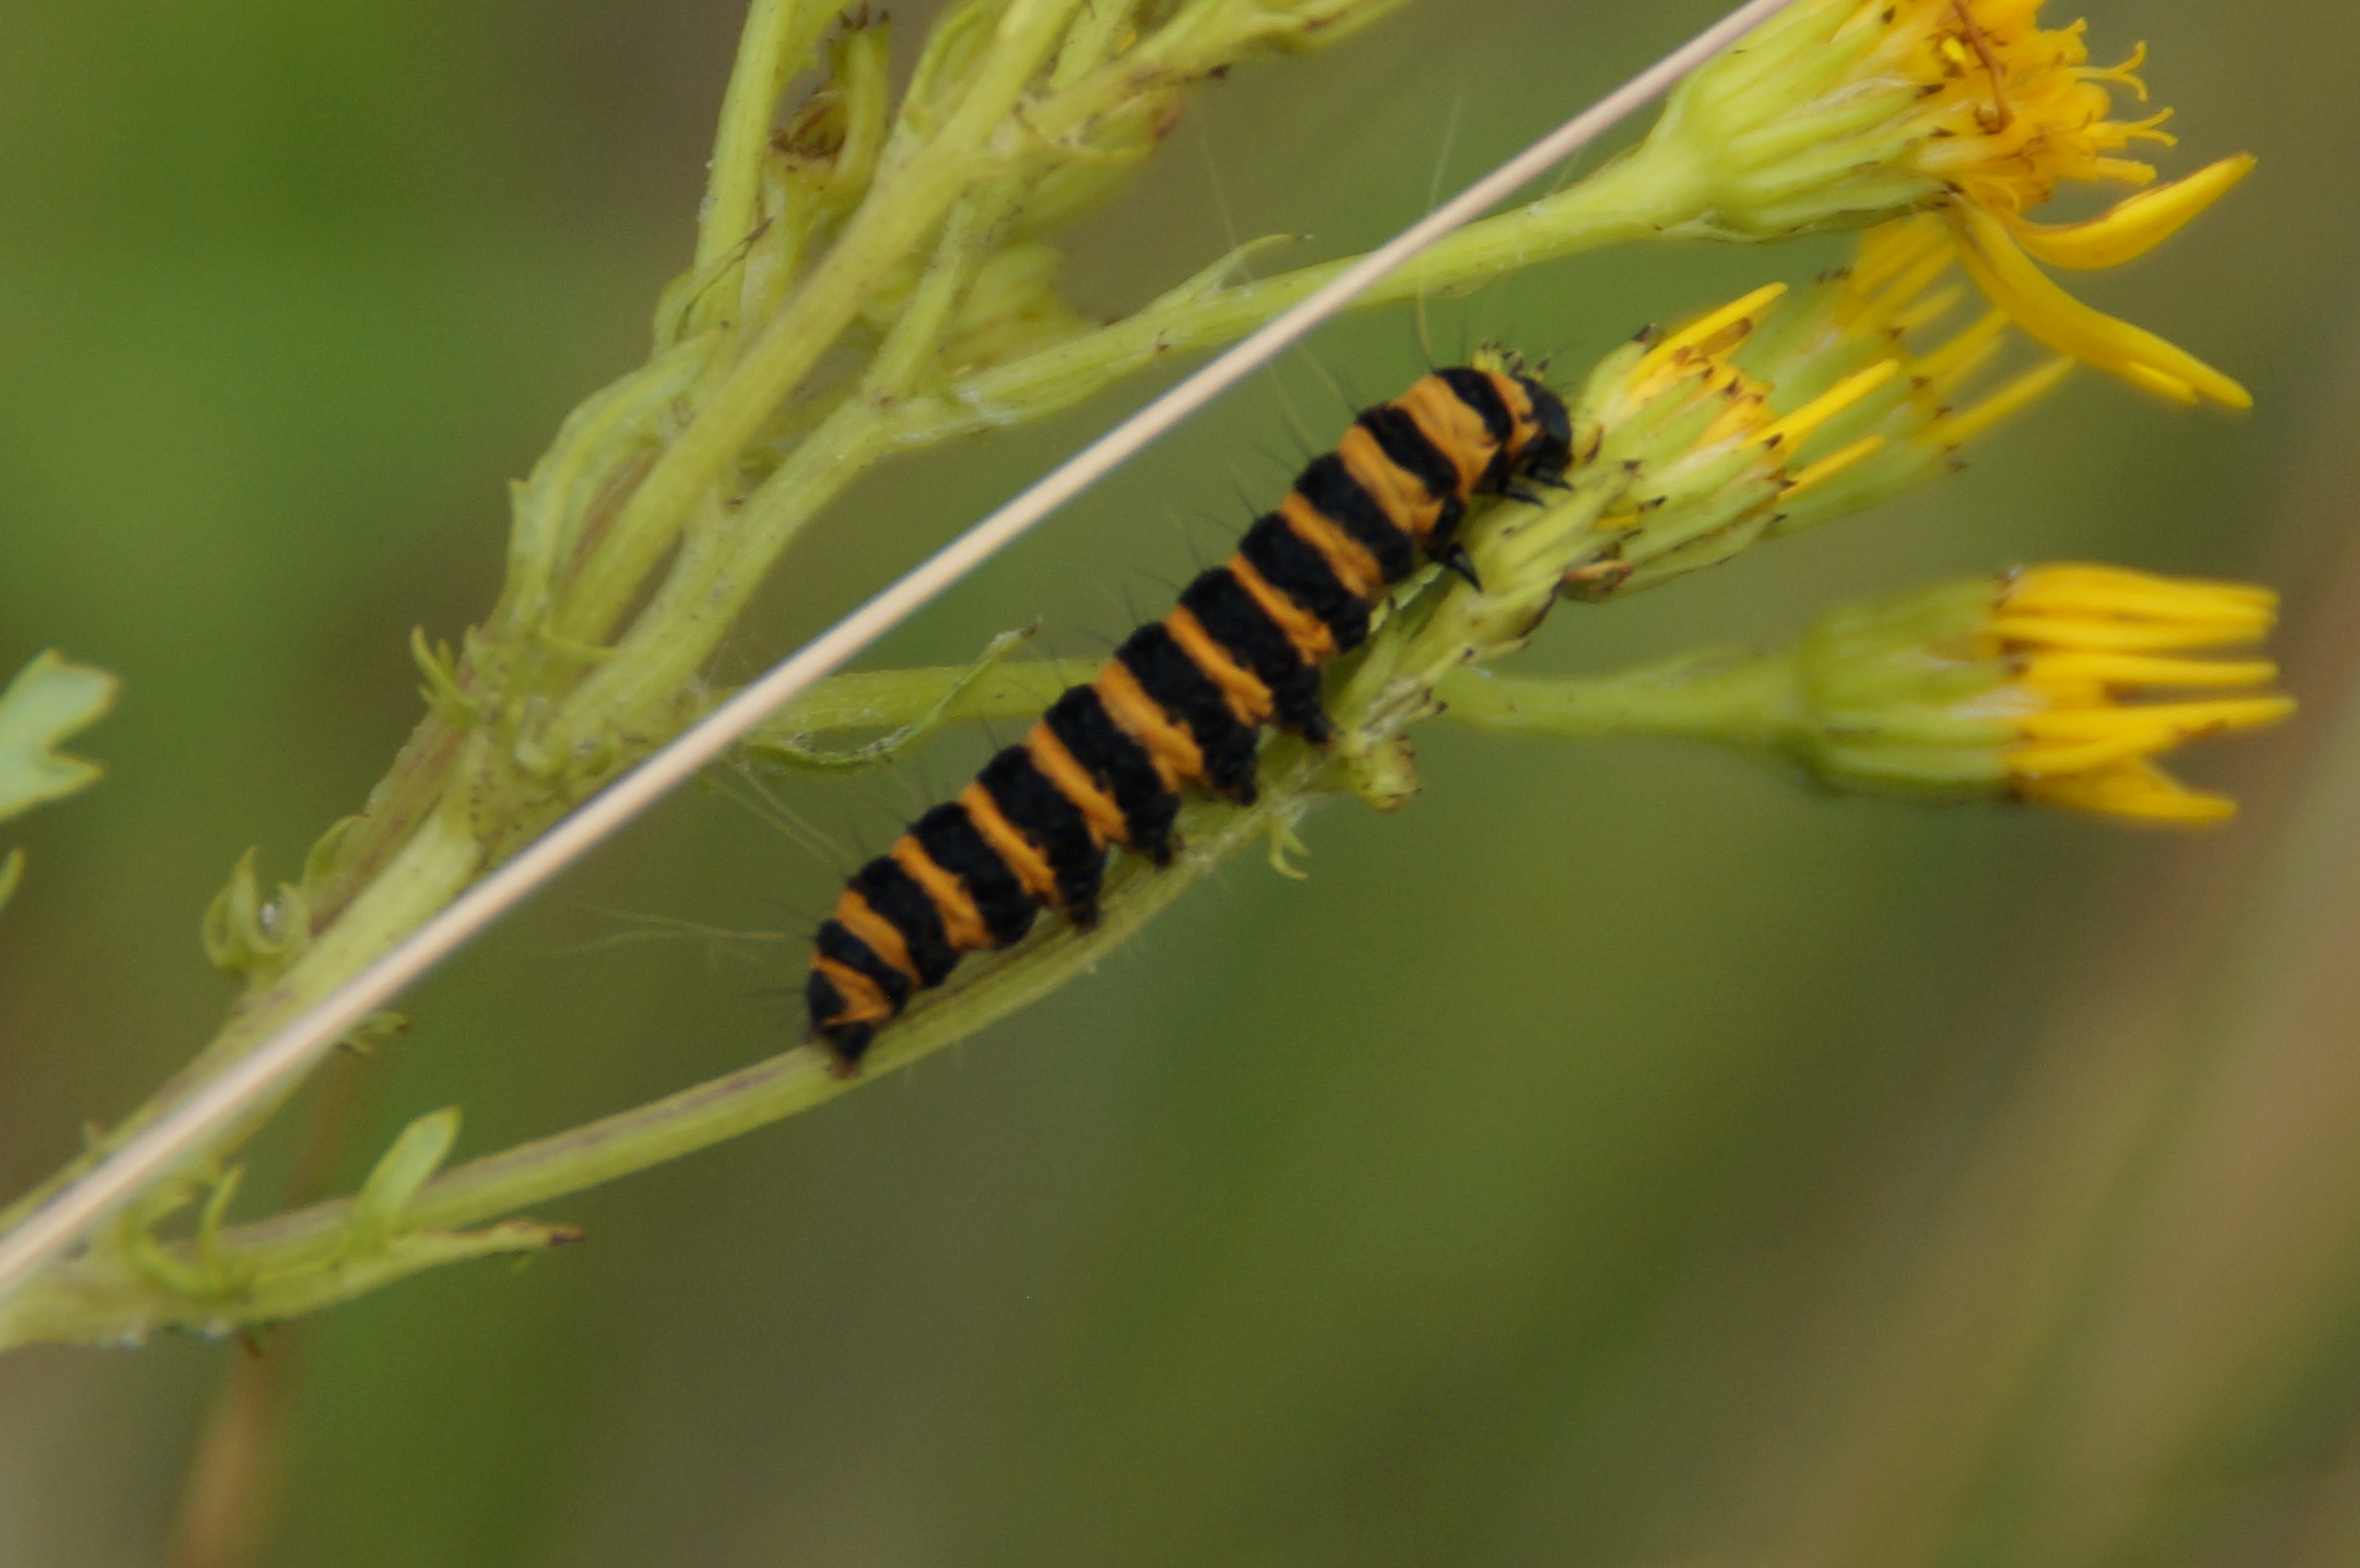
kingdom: Animalia
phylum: Arthropoda
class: Insecta
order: Lepidoptera
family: Erebidae
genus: Tyria
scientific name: Tyria jacobaeae
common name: Blodplet
